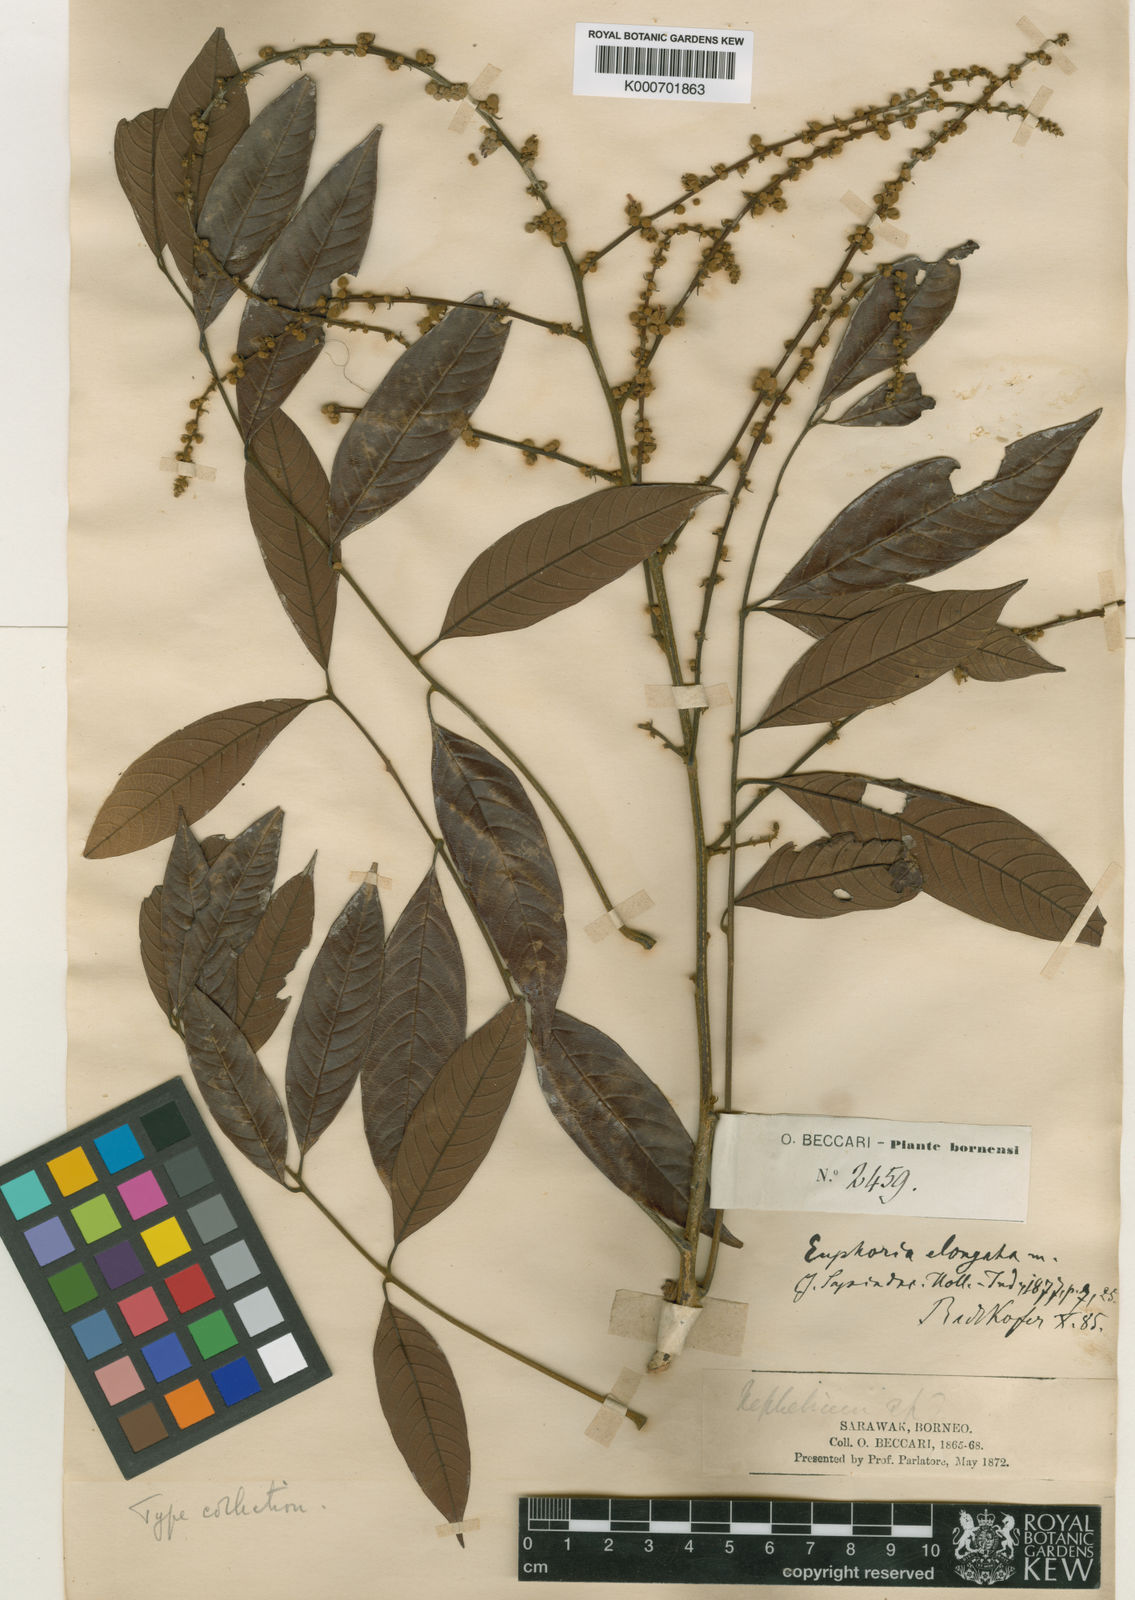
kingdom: Plantae
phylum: Tracheophyta
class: Magnoliopsida
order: Sapindales
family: Sapindaceae
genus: Dimocarpus
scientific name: Dimocarpus malesianus
